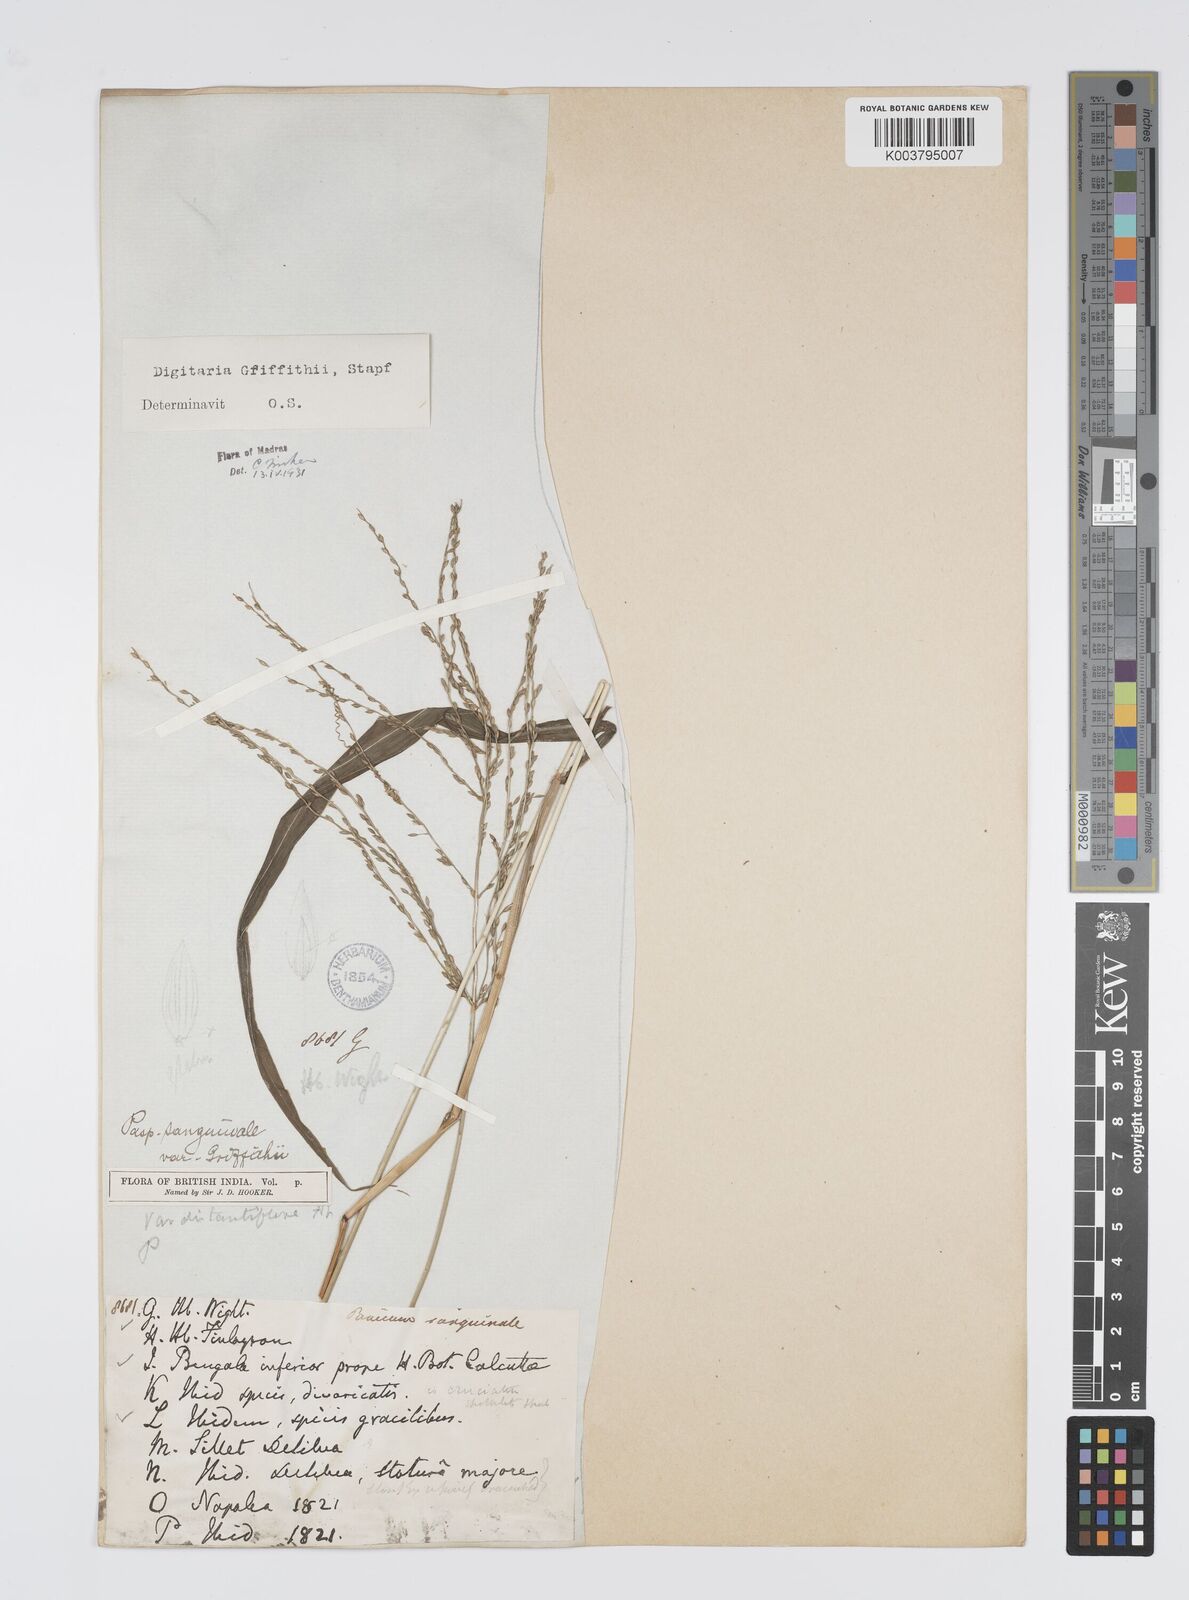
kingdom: Plantae
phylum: Tracheophyta
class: Liliopsida
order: Poales
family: Poaceae
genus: Digitaria
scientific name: Digitaria griffithii
